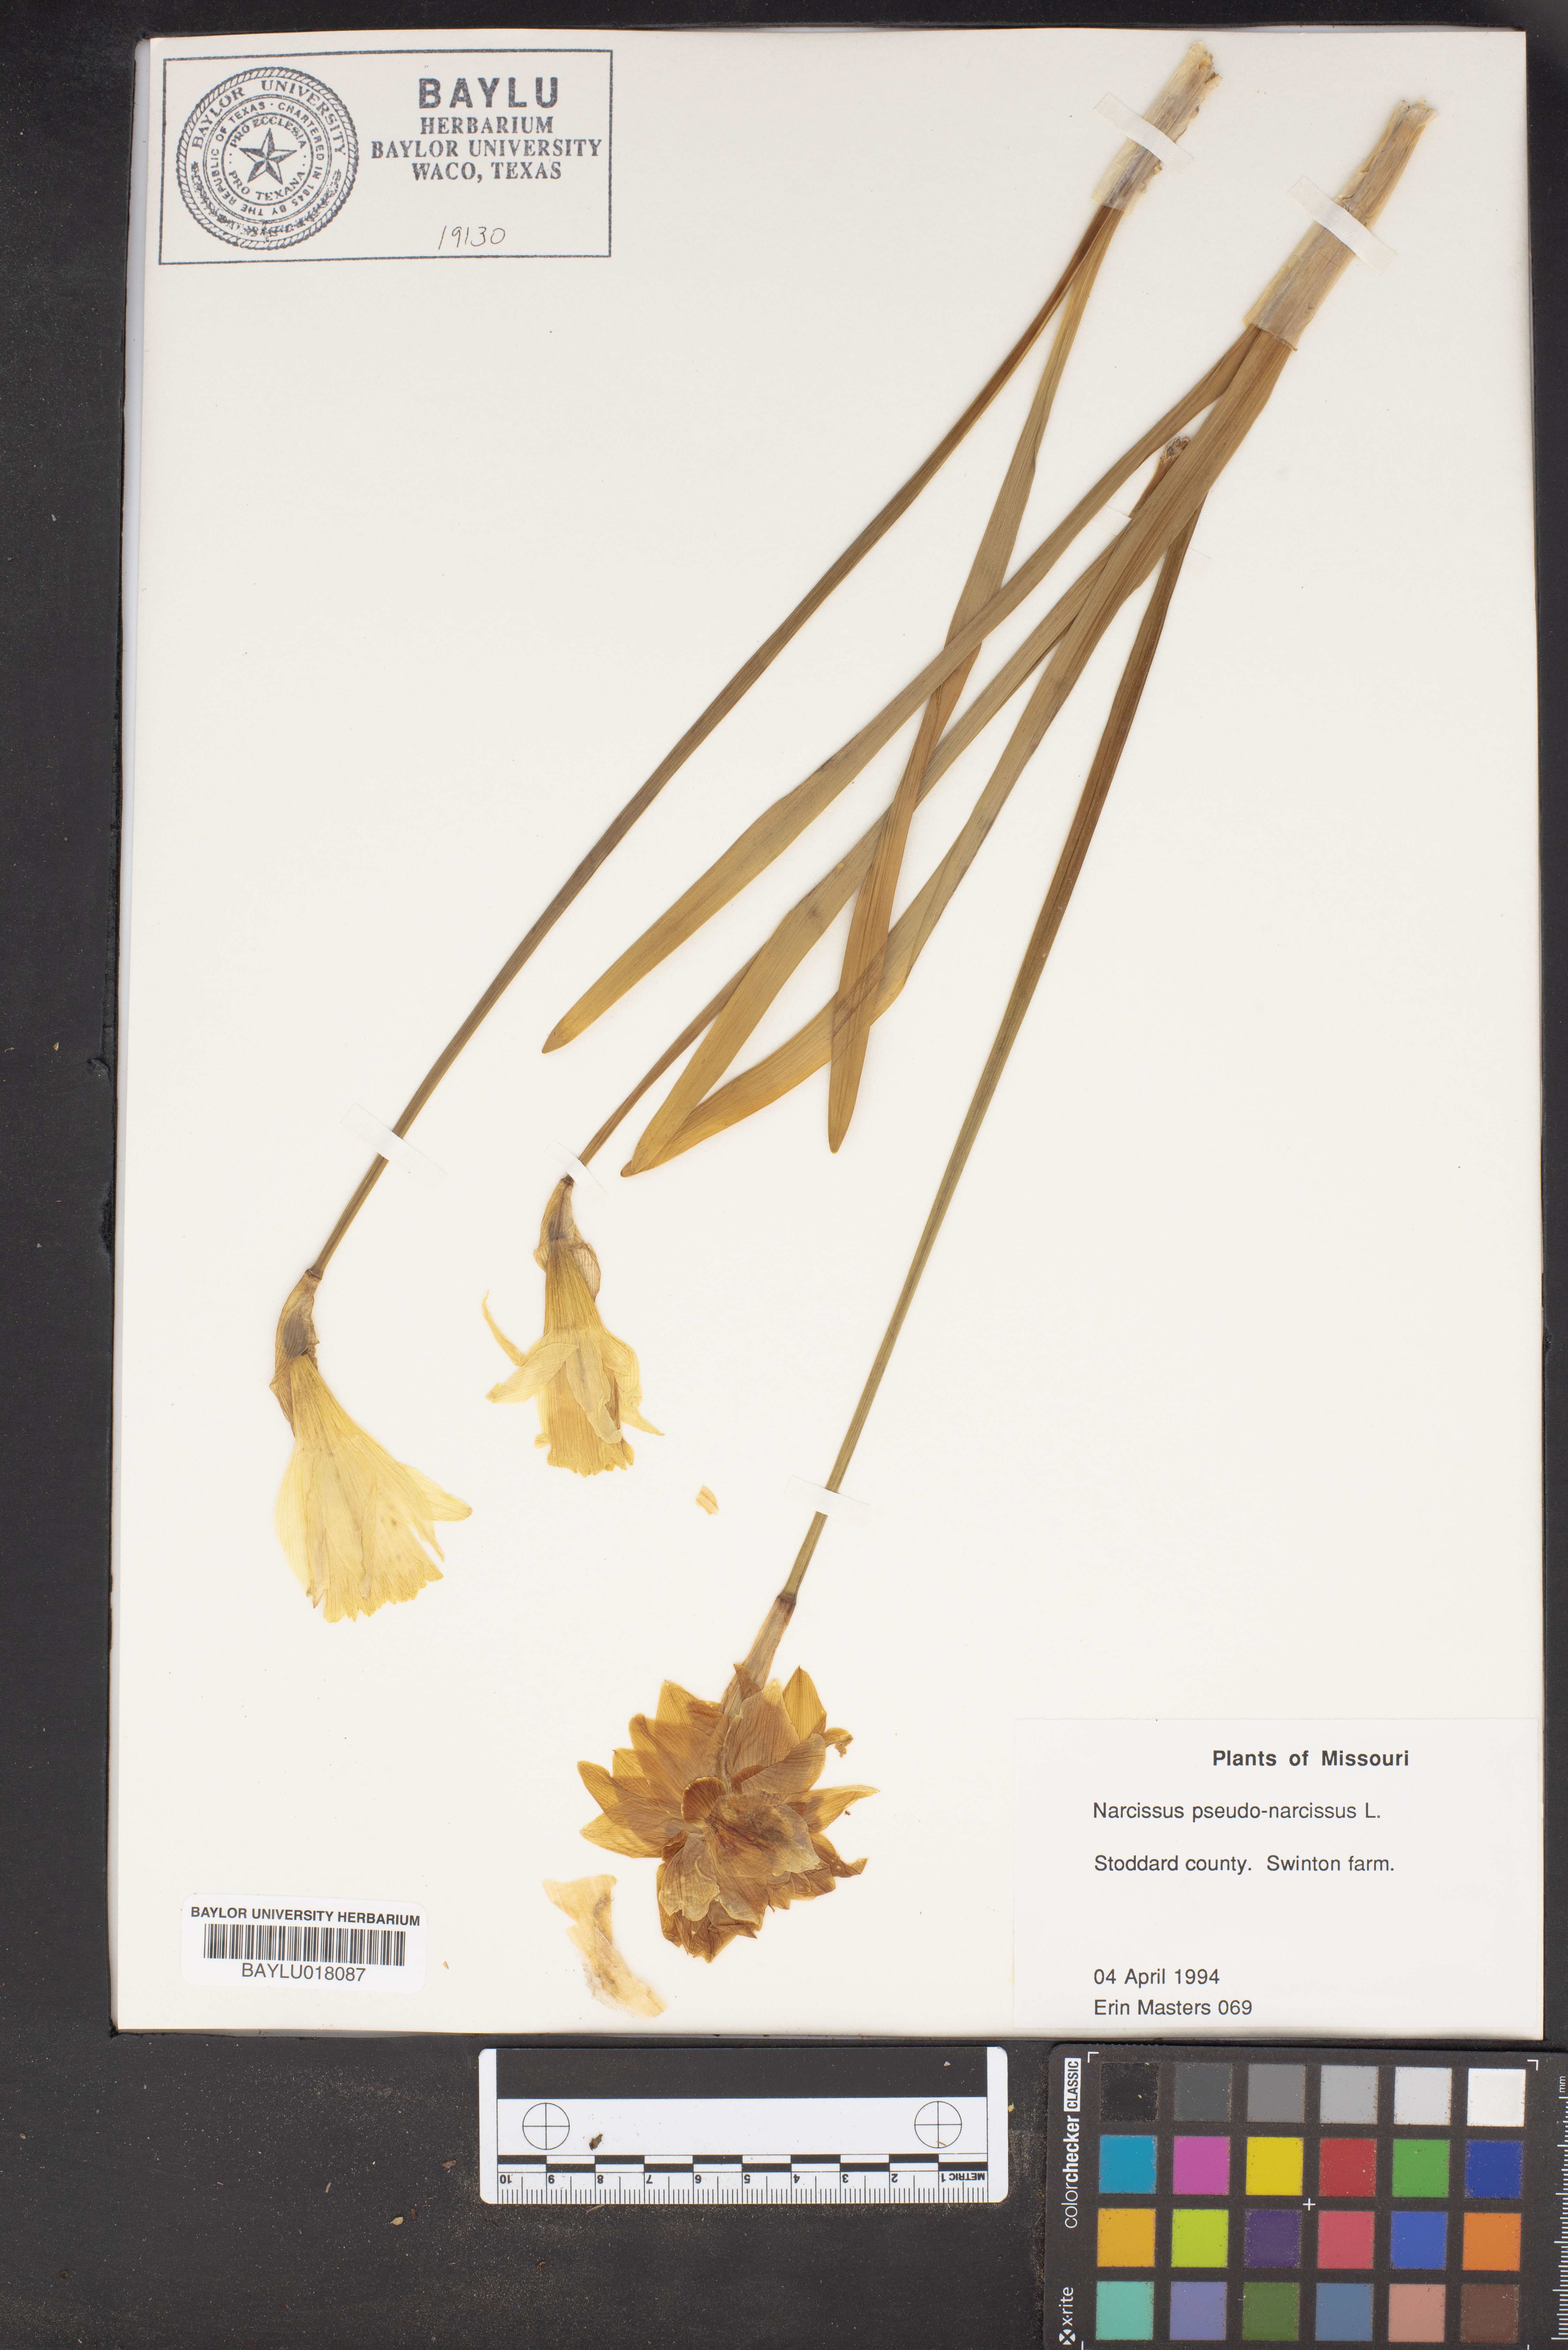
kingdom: Plantae
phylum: Tracheophyta
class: Liliopsida
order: Asparagales
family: Amaryllidaceae
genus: Narcissus
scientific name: Narcissus pseudonarcissus
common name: Daffodil
